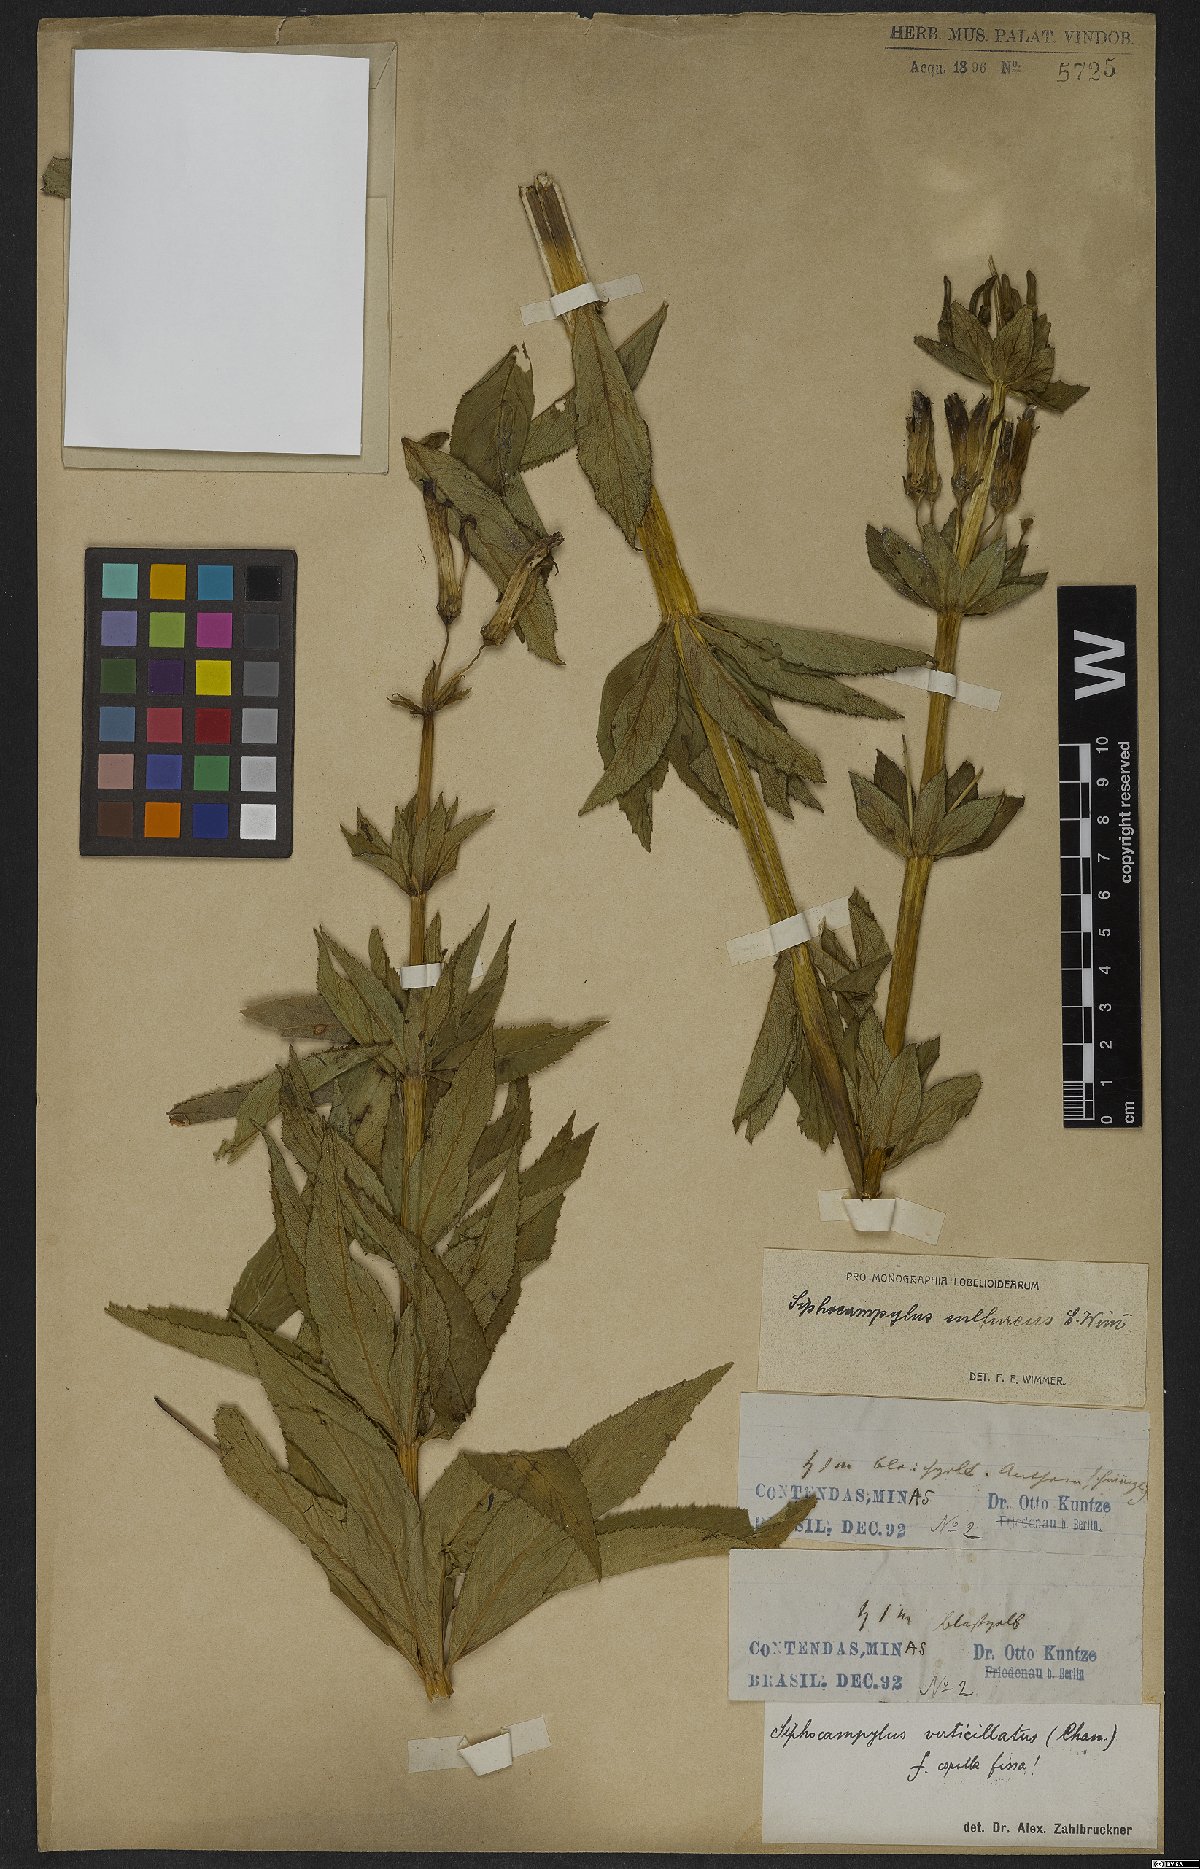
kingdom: Plantae
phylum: Tracheophyta
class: Magnoliopsida
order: Asterales
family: Campanulaceae
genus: Siphocampylus
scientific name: Siphocampylus sulfureus
